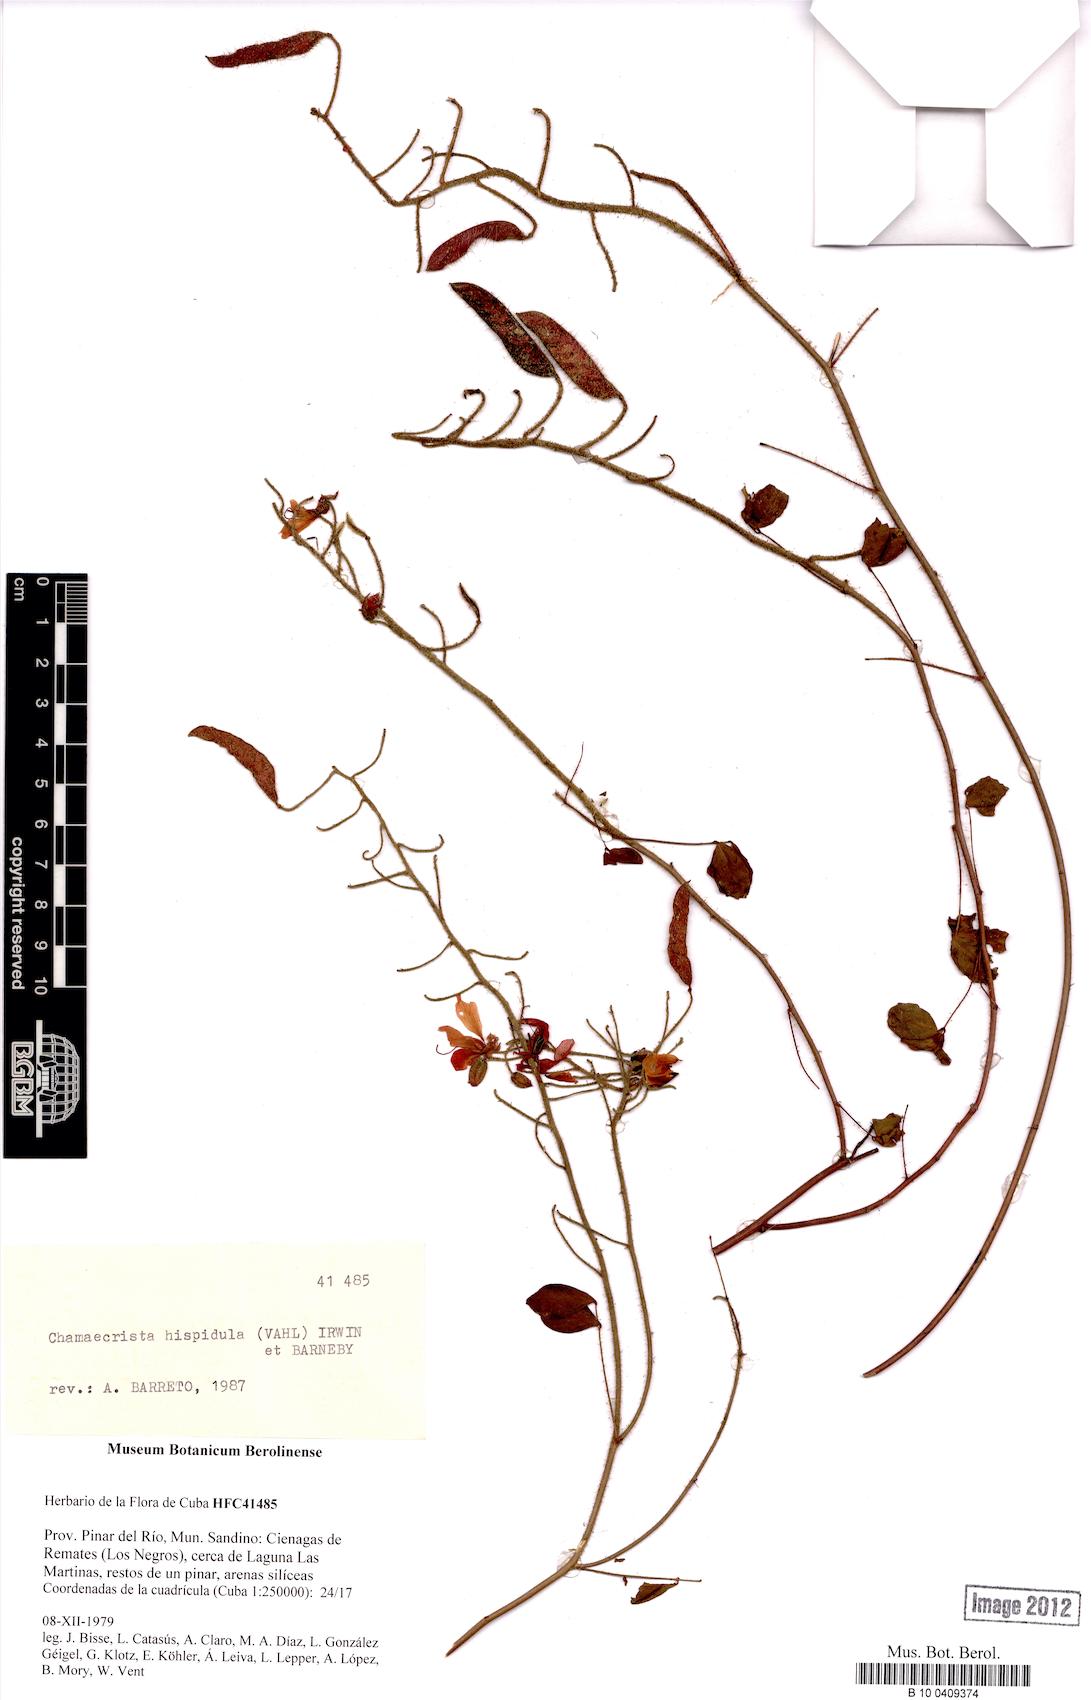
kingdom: Plantae
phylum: Tracheophyta
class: Magnoliopsida
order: Fabales
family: Fabaceae
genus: Chamaecrista
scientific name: Chamaecrista hispidula
